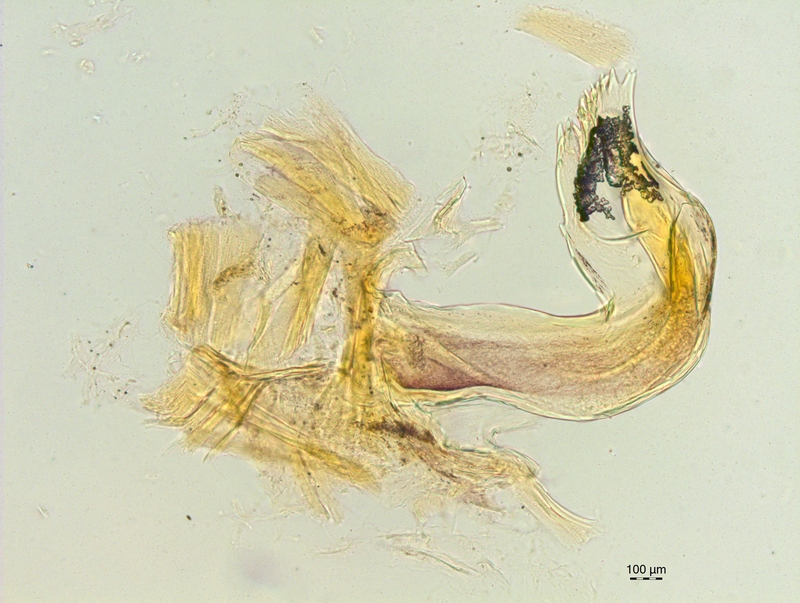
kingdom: Animalia
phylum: Arthropoda
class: Diplopoda
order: Chordeumatida
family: Craspedosomatidae
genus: Craspedosoma
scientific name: Craspedosoma furculigerum
